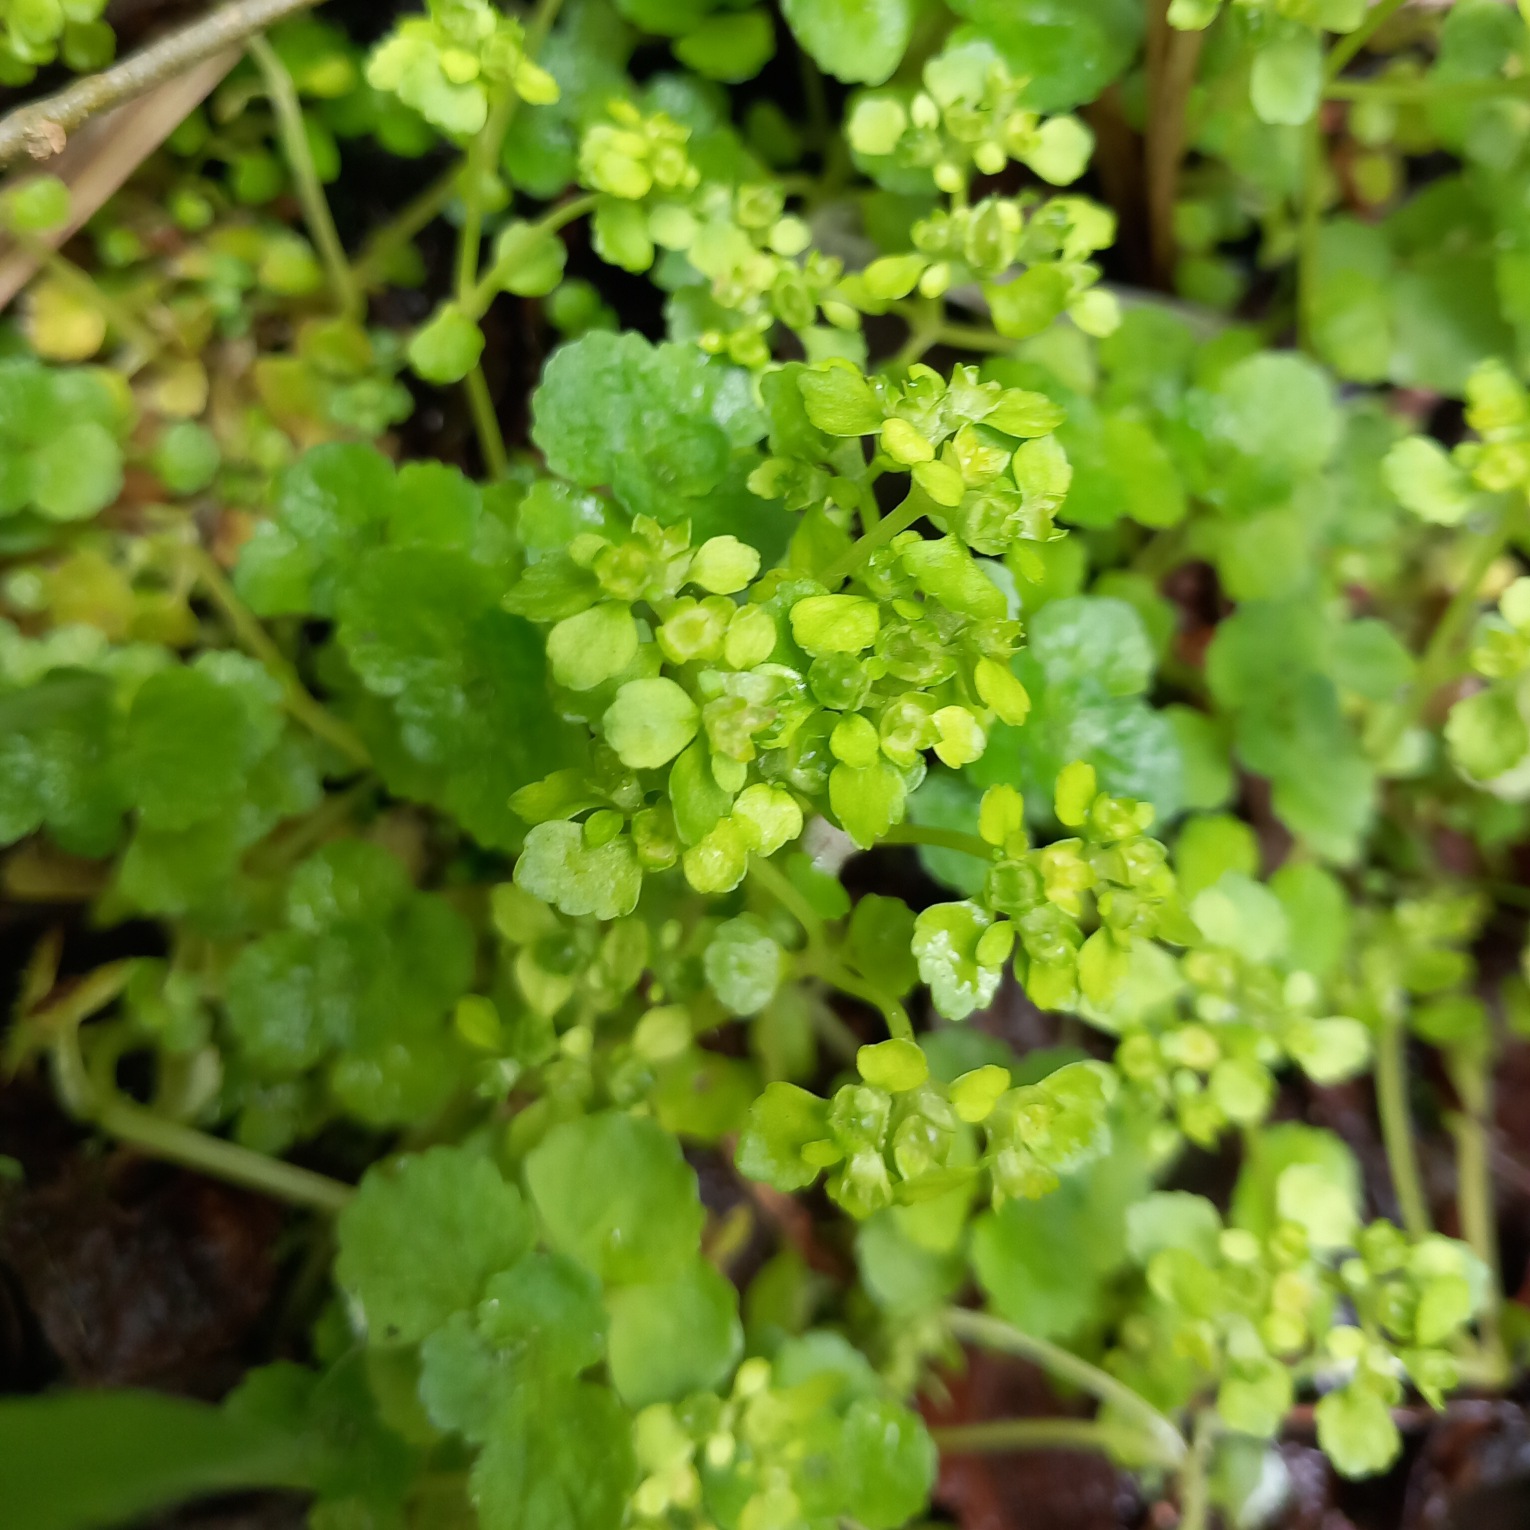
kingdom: Plantae
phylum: Tracheophyta
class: Magnoliopsida
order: Saxifragales
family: Saxifragaceae
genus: Chrysosplenium
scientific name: Chrysosplenium oppositifolium
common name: Småbladet milturt
